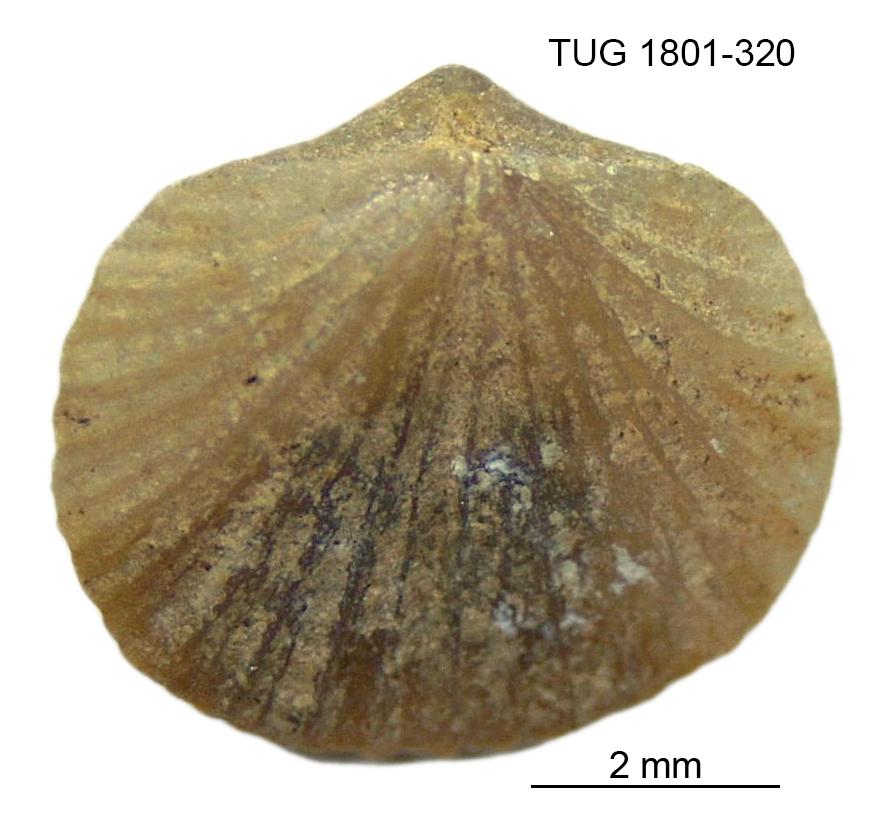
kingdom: Animalia
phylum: Brachiopoda
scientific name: Brachiopoda
